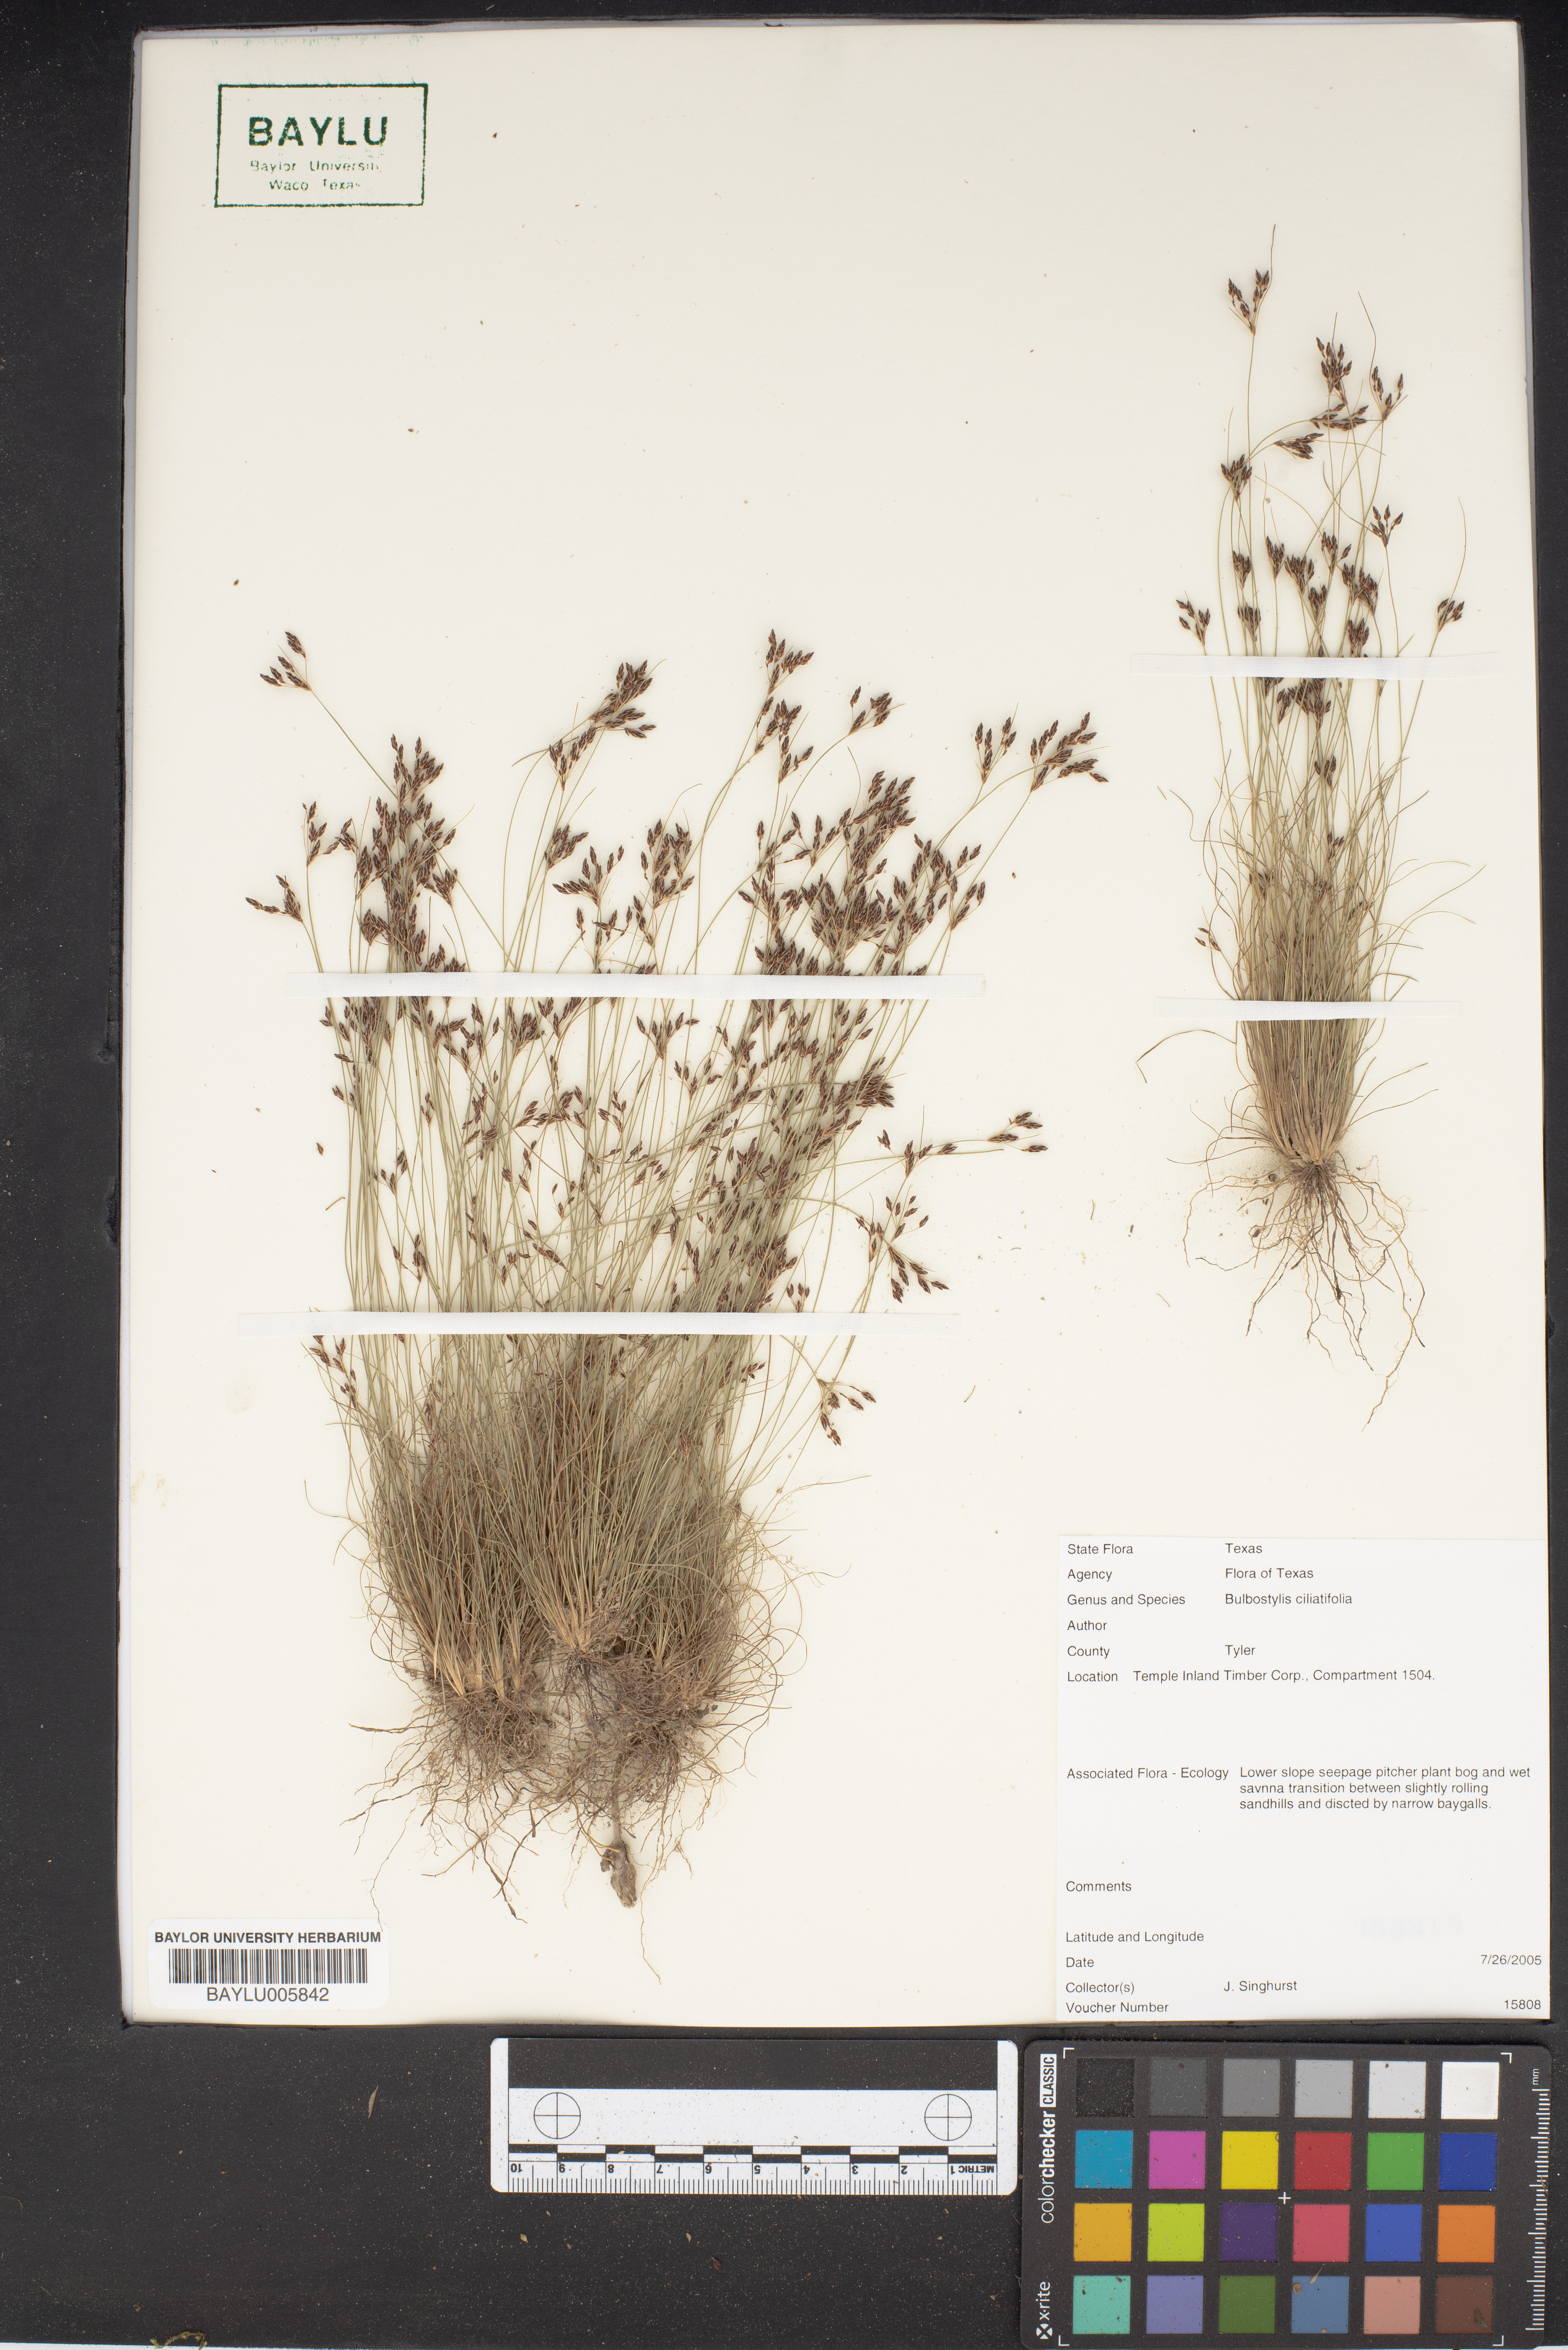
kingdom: Plantae
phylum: Tracheophyta
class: Liliopsida
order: Poales
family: Cyperaceae
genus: Bulbostylis
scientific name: Bulbostylis ciliatifolia
